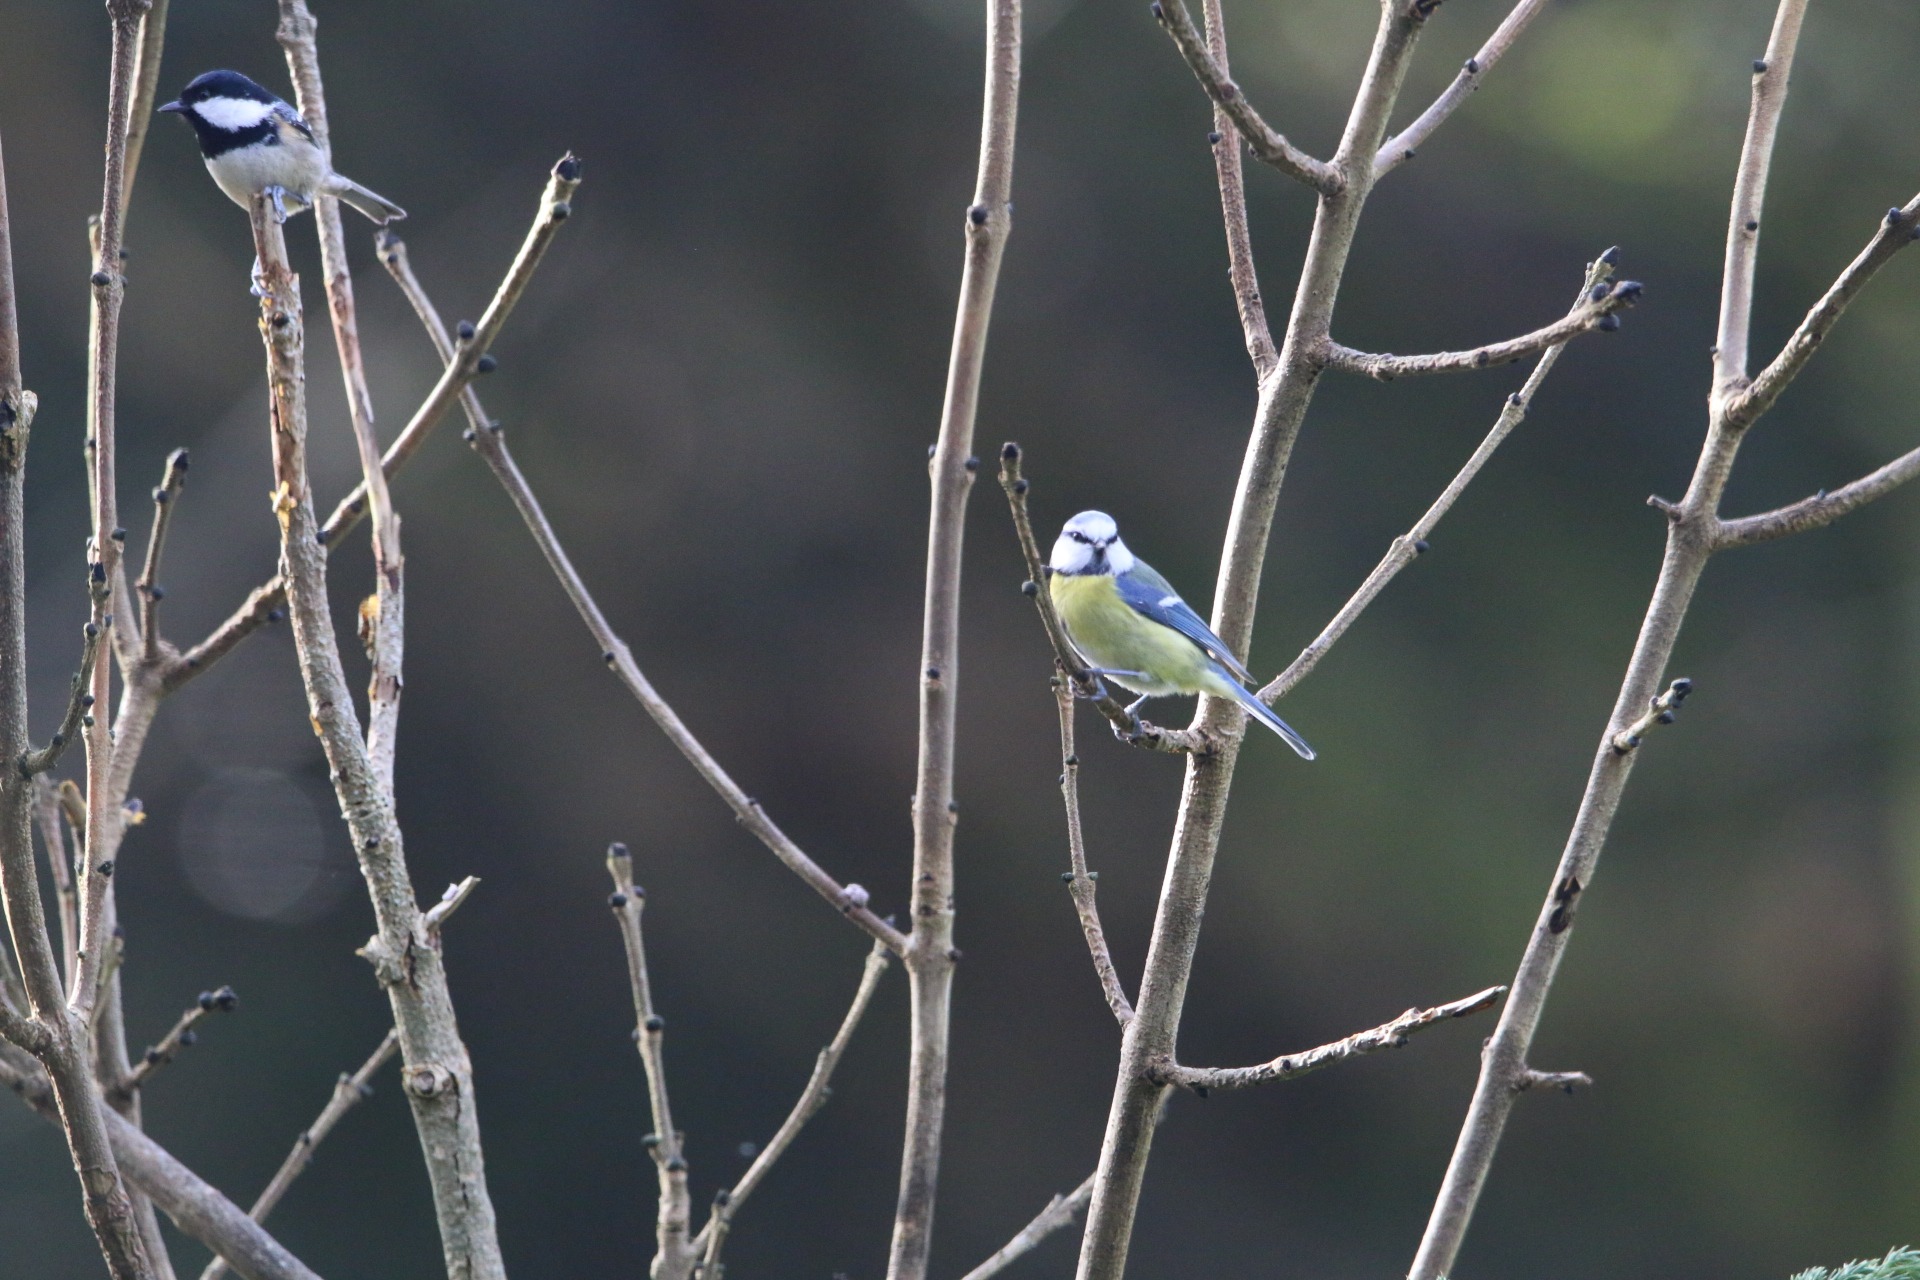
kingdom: Animalia
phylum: Chordata
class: Aves
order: Passeriformes
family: Paridae
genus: Cyanistes
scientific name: Cyanistes caeruleus
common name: Blåmejse
